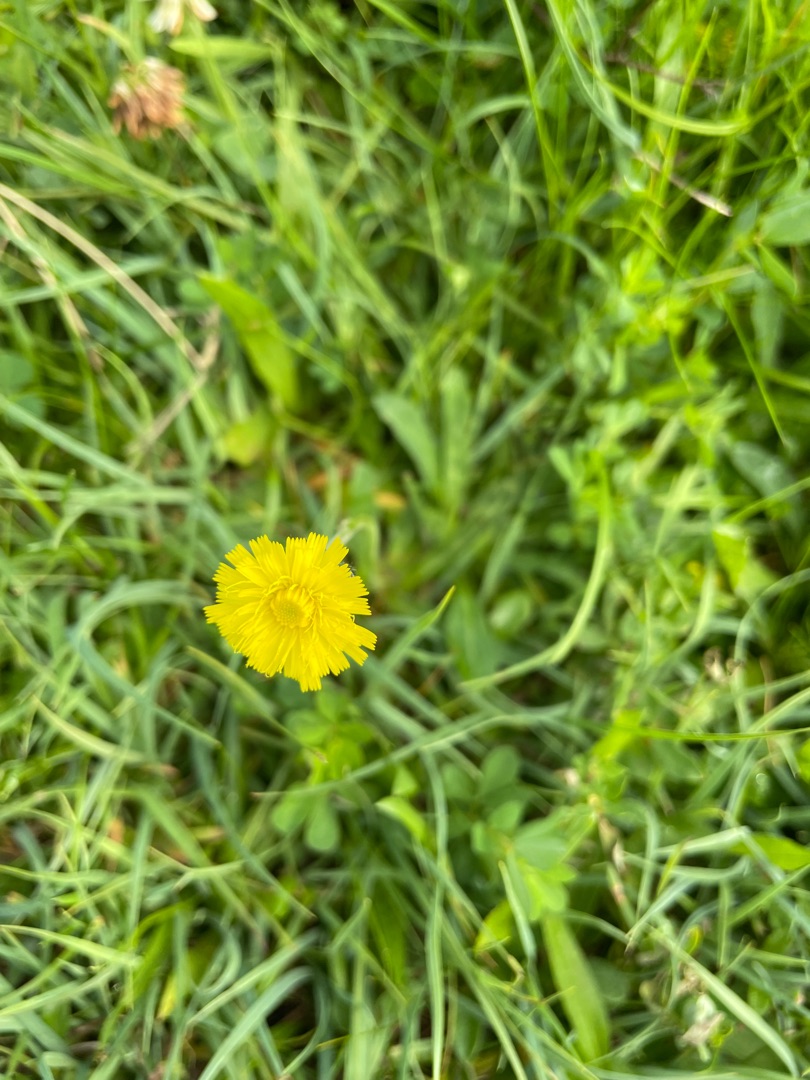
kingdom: Plantae
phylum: Tracheophyta
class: Magnoliopsida
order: Asterales
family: Asteraceae
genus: Pilosella
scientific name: Pilosella lactucella
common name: Lancetbladet høgeurt
